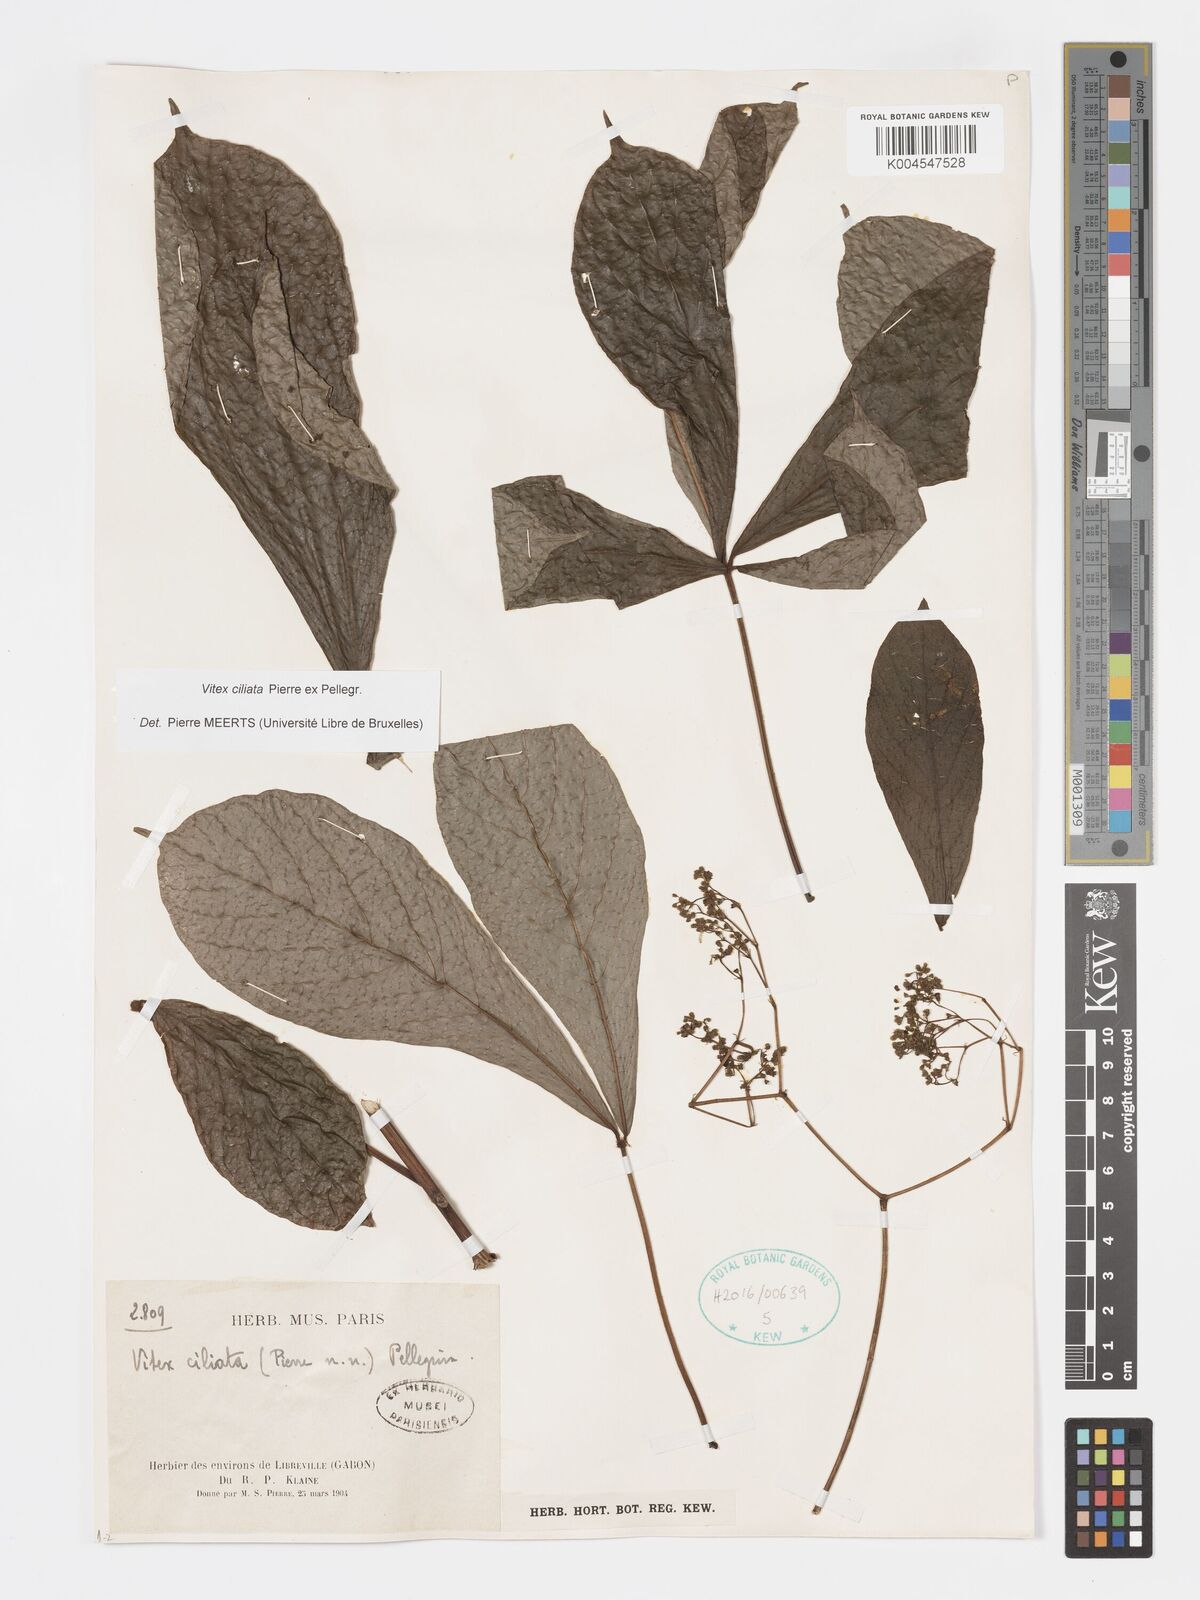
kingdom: Plantae
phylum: Tracheophyta
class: Magnoliopsida
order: Lamiales
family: Lamiaceae
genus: Vitex
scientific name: Vitex ciliata
